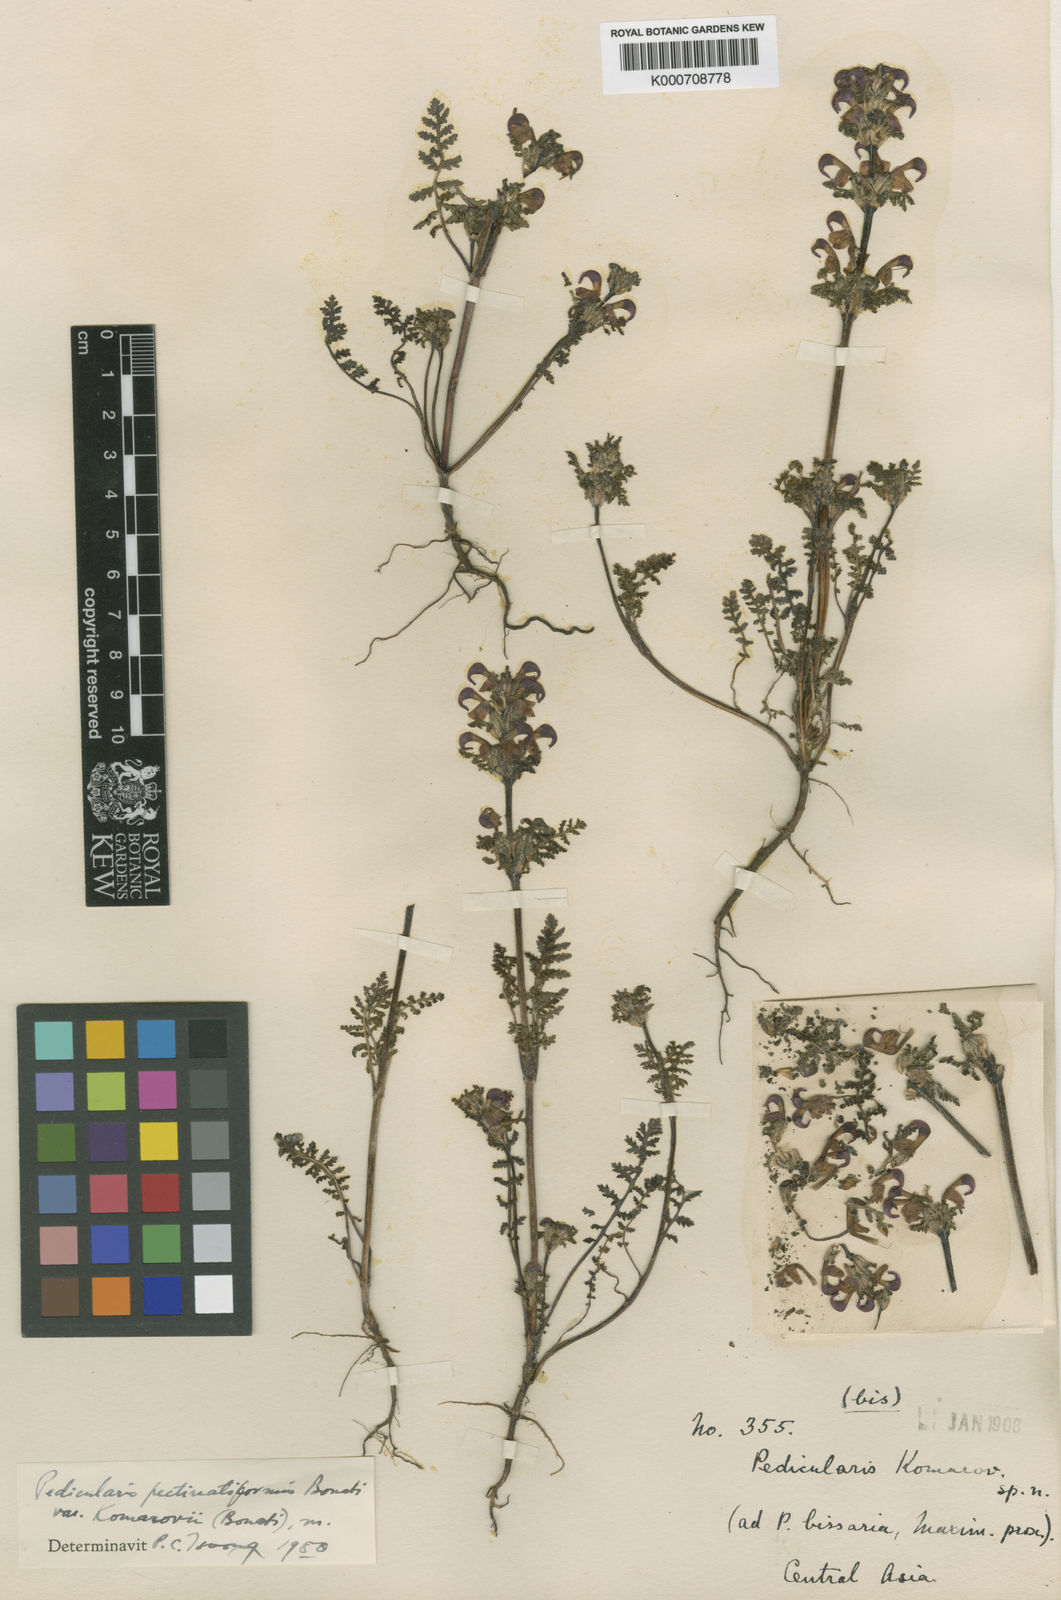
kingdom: Plantae
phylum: Tracheophyta
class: Magnoliopsida
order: Lamiales
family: Orobanchaceae
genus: Pedicularis
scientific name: Pedicularis pectinatiformis
